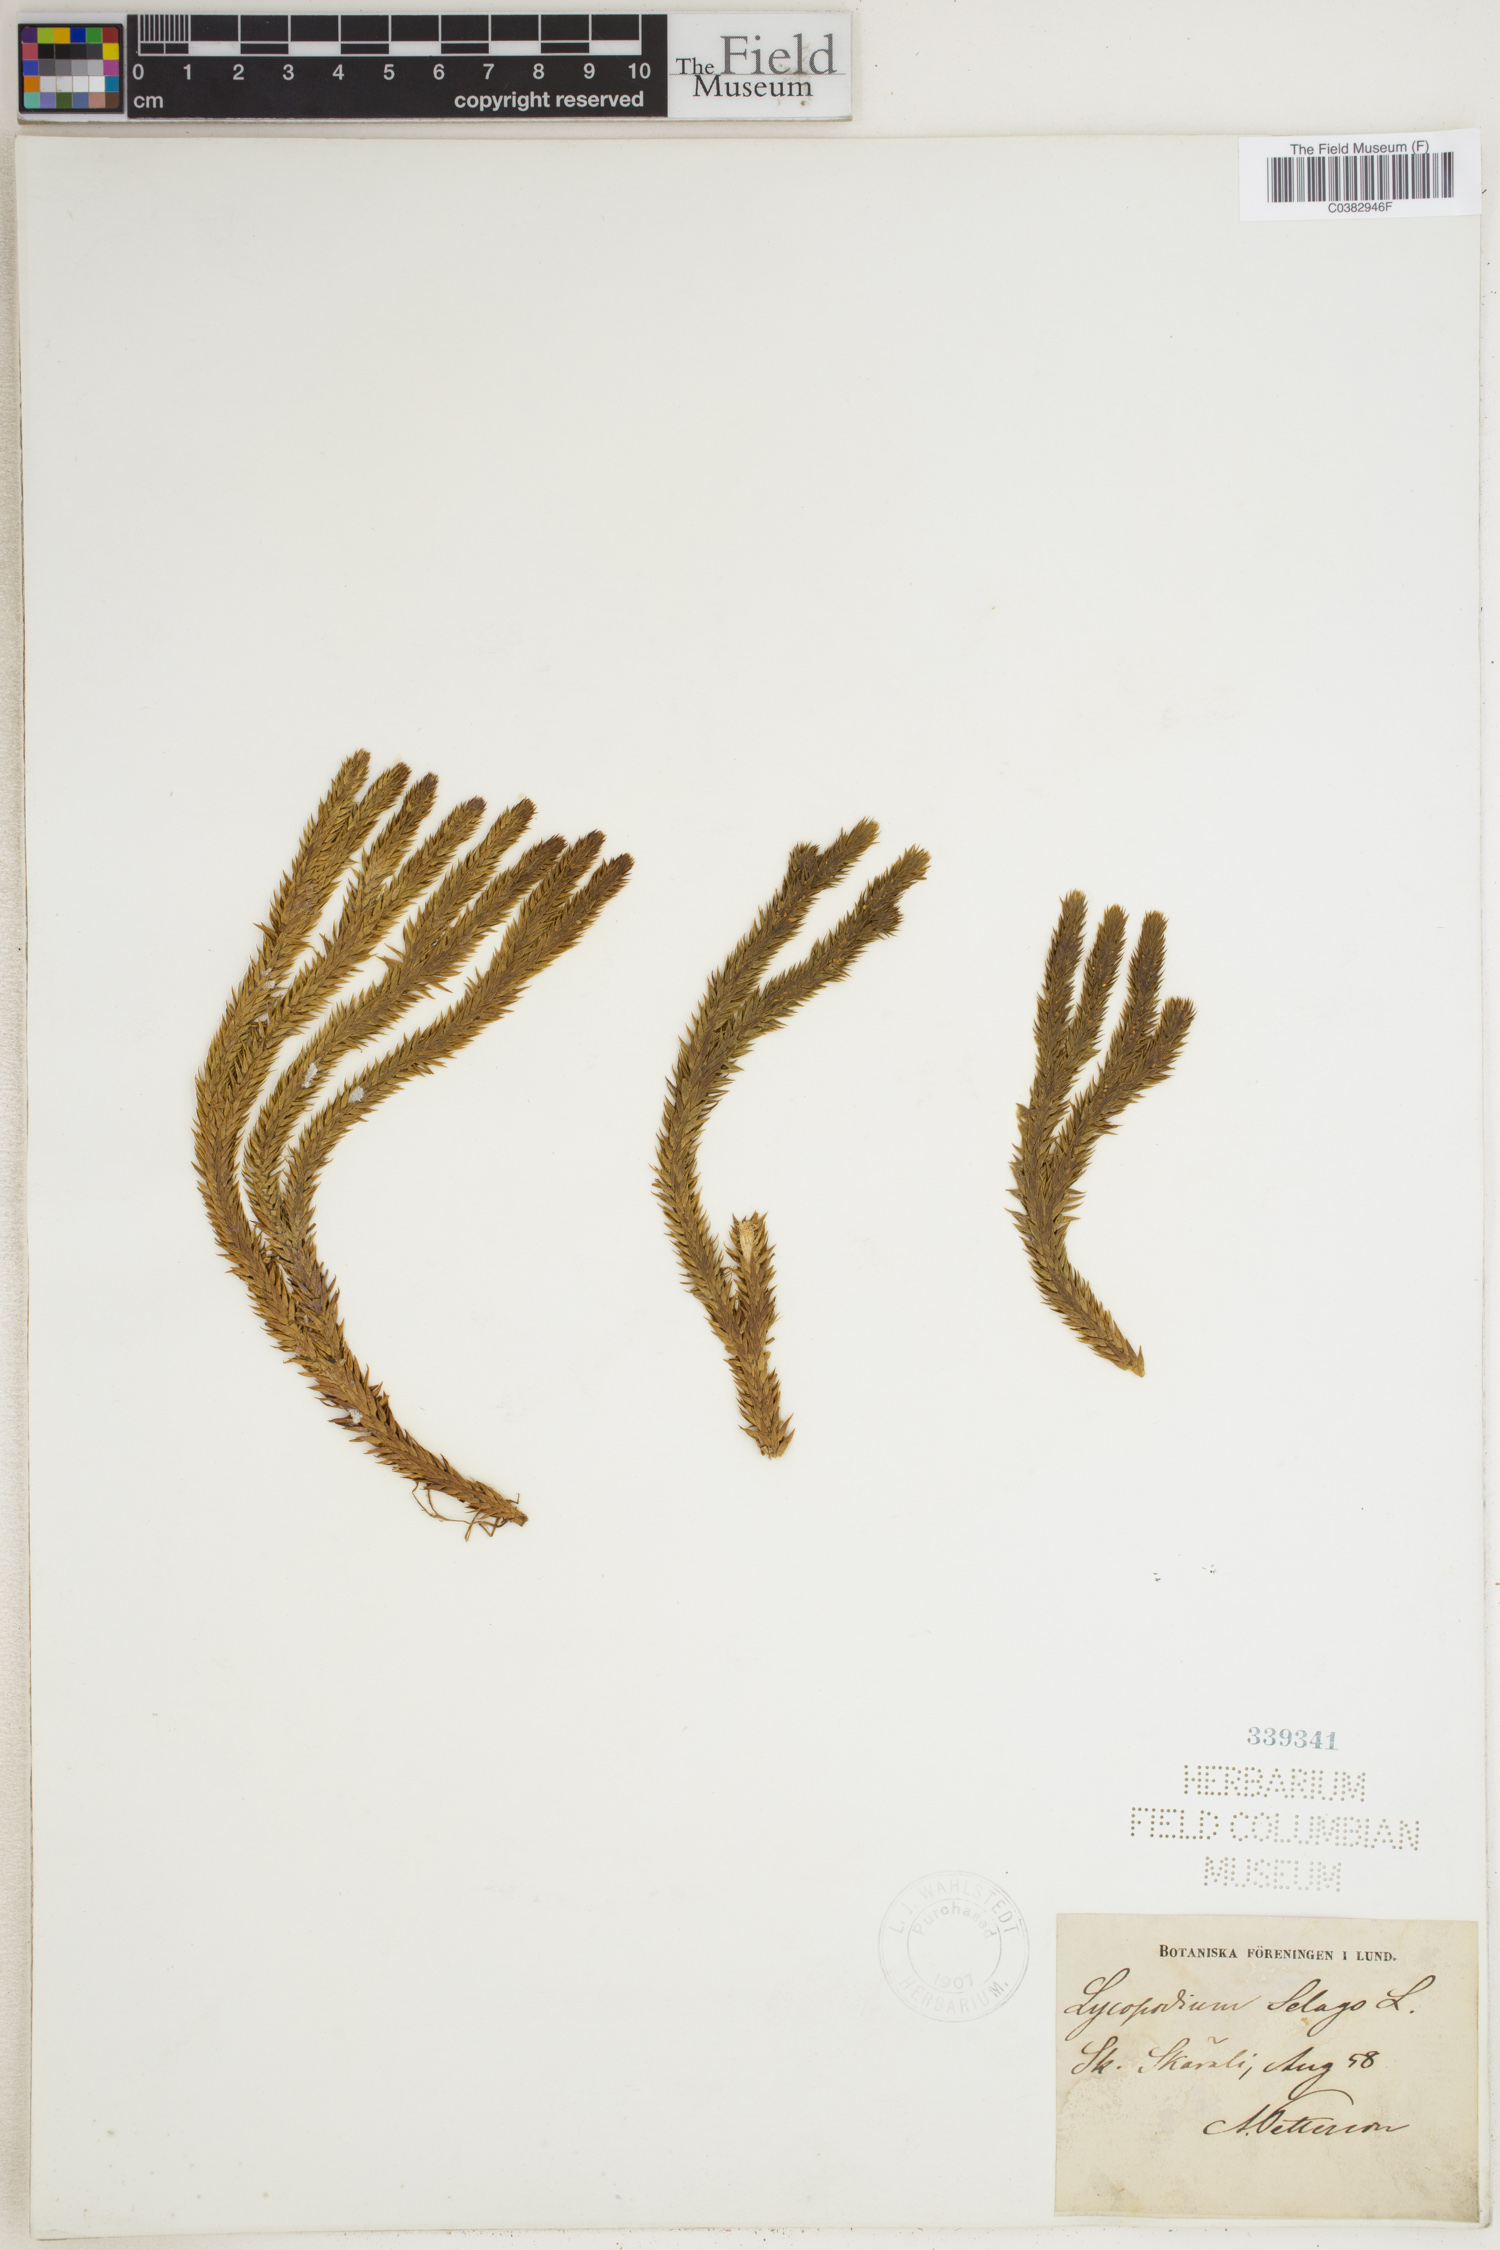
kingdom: Plantae
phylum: Tracheophyta
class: Lycopodiopsida
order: Lycopodiales
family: Lycopodiaceae
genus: Huperzia
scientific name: Huperzia selago
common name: Northern firmoss
